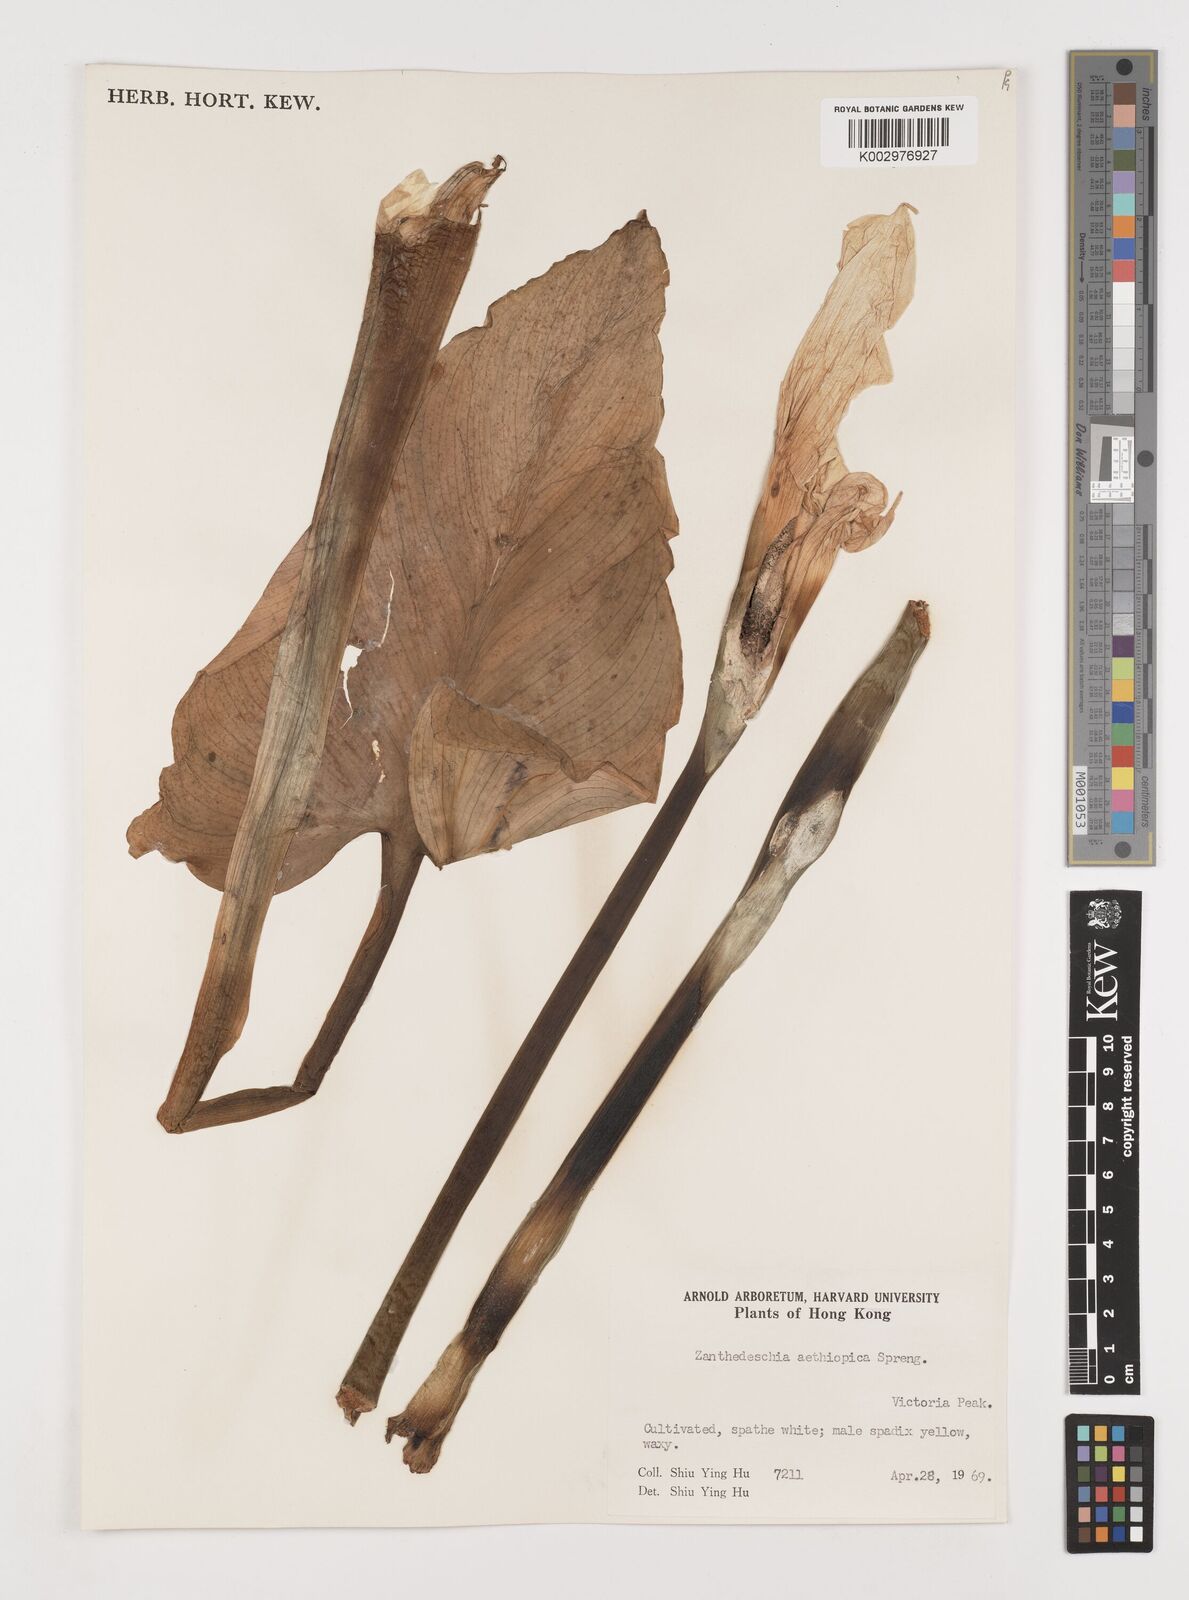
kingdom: Plantae
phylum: Tracheophyta
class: Liliopsida
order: Alismatales
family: Araceae
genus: Zantedeschia
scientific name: Zantedeschia aethiopica
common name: Altar-lily
